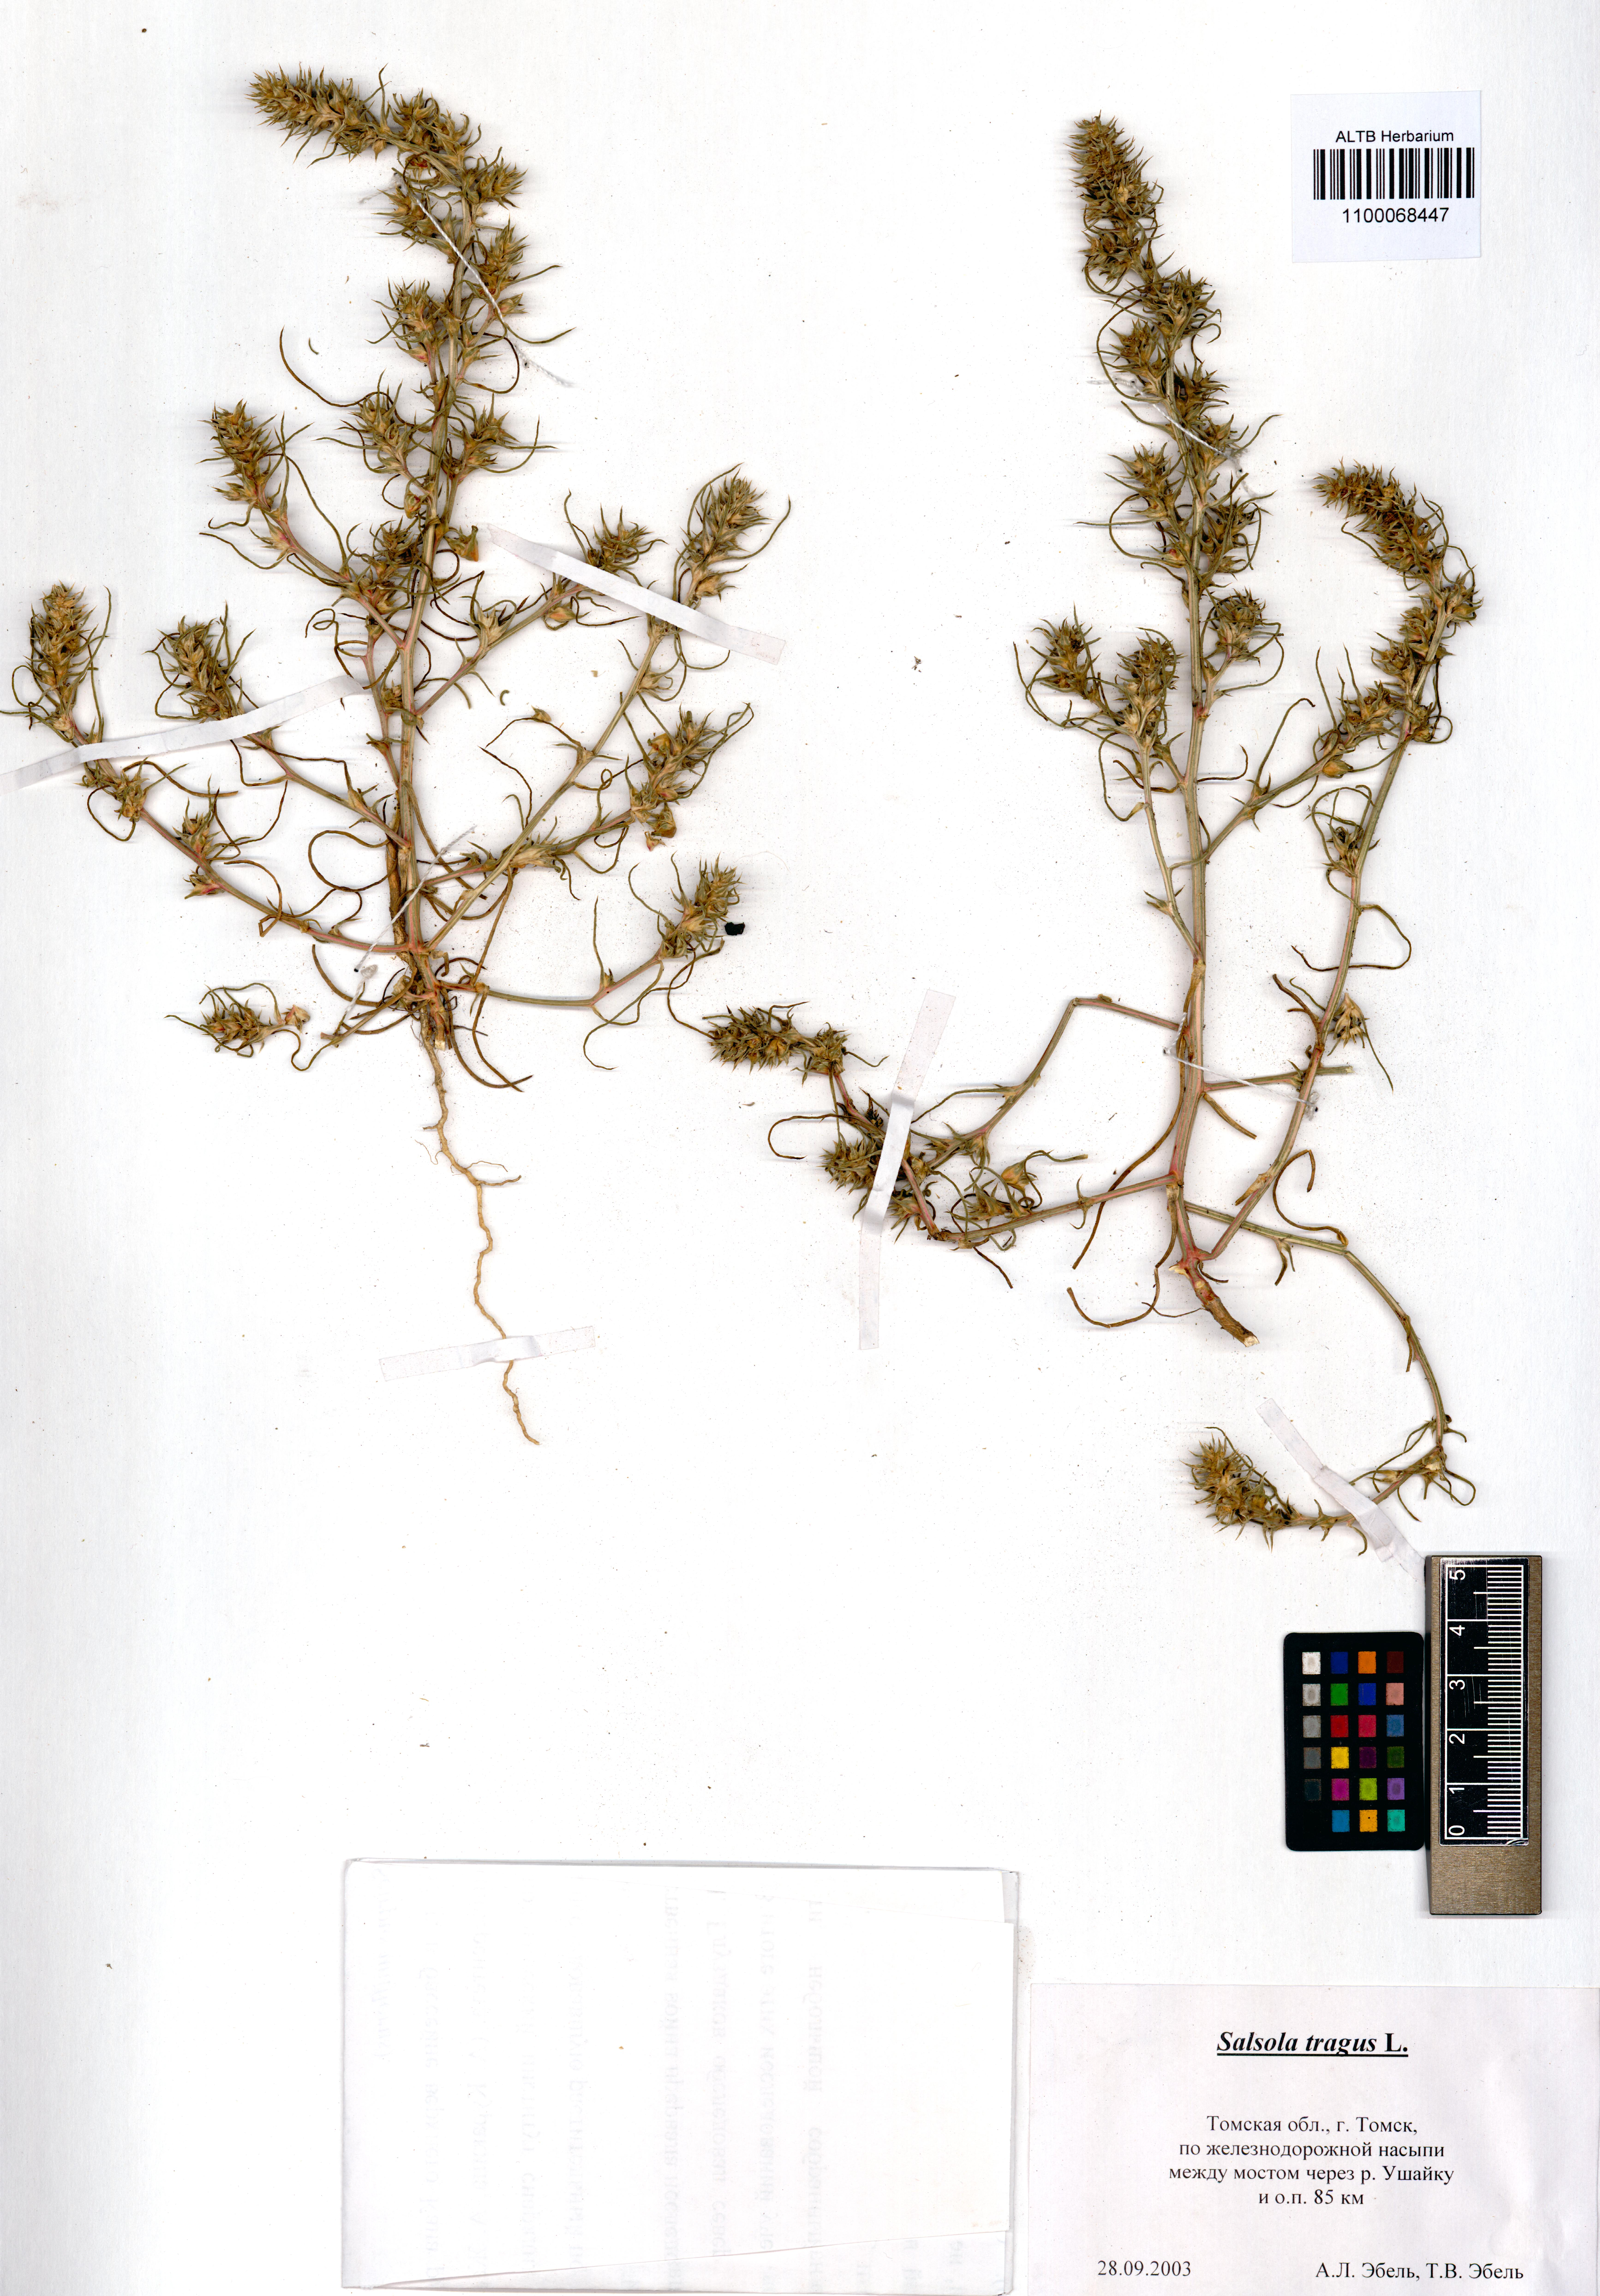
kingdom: Plantae
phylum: Tracheophyta
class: Magnoliopsida
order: Caryophyllales
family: Amaranthaceae
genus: Salsola
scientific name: Salsola tragus
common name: Prickly russian thistle
